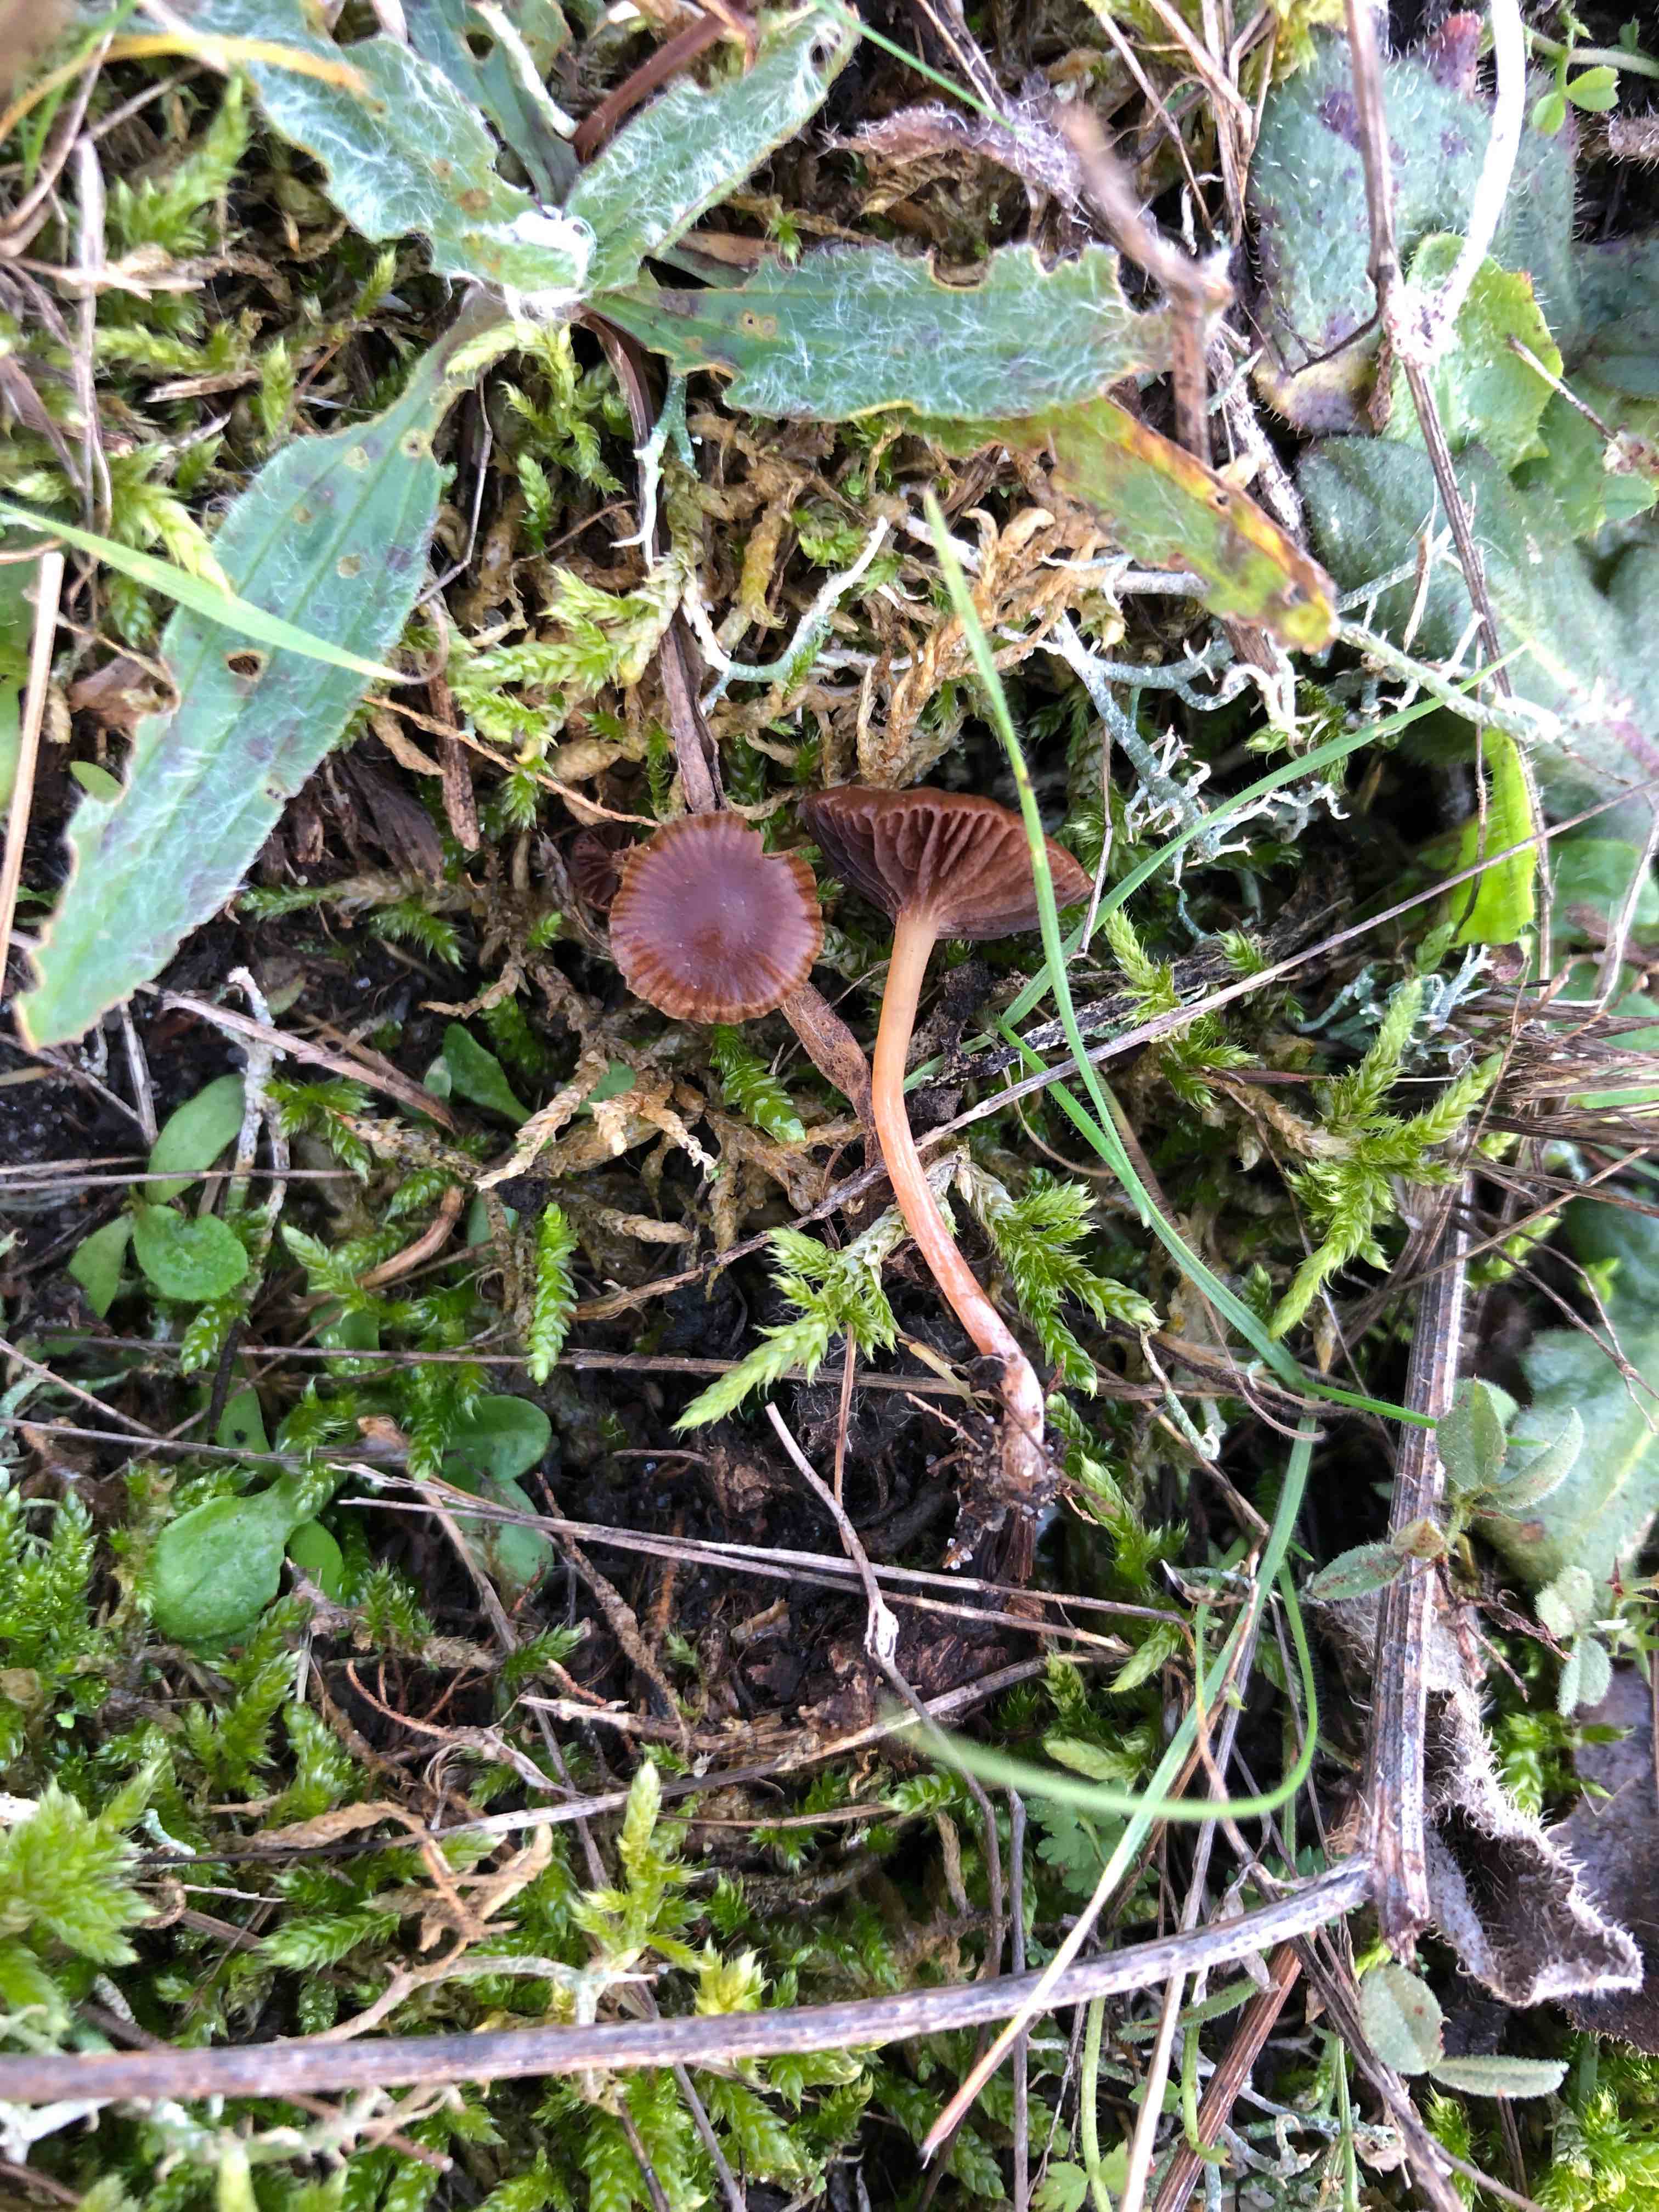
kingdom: Fungi
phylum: Basidiomycota
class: Agaricomycetes
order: Agaricales
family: Strophariaceae
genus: Deconica
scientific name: Deconica montana
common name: rødbrun stråhat
